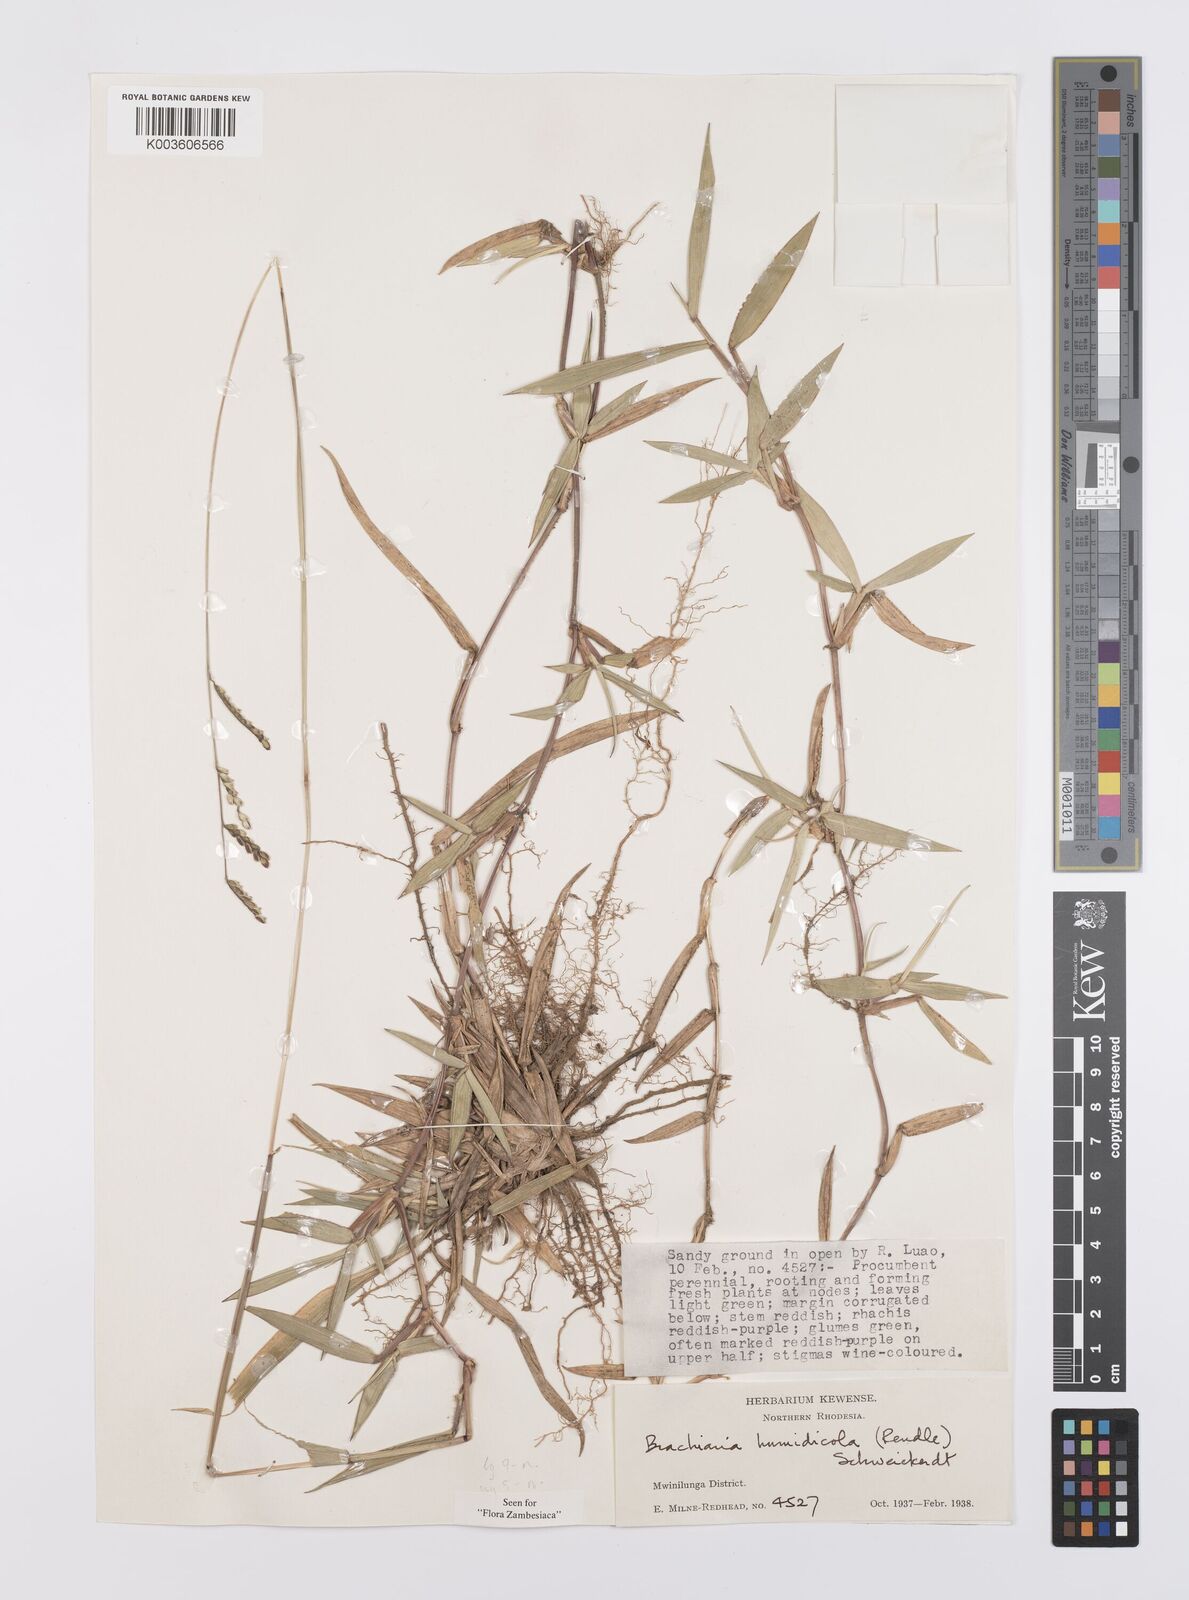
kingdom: Plantae
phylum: Tracheophyta
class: Liliopsida
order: Poales
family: Poaceae
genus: Urochloa
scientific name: Urochloa dictyoneura
